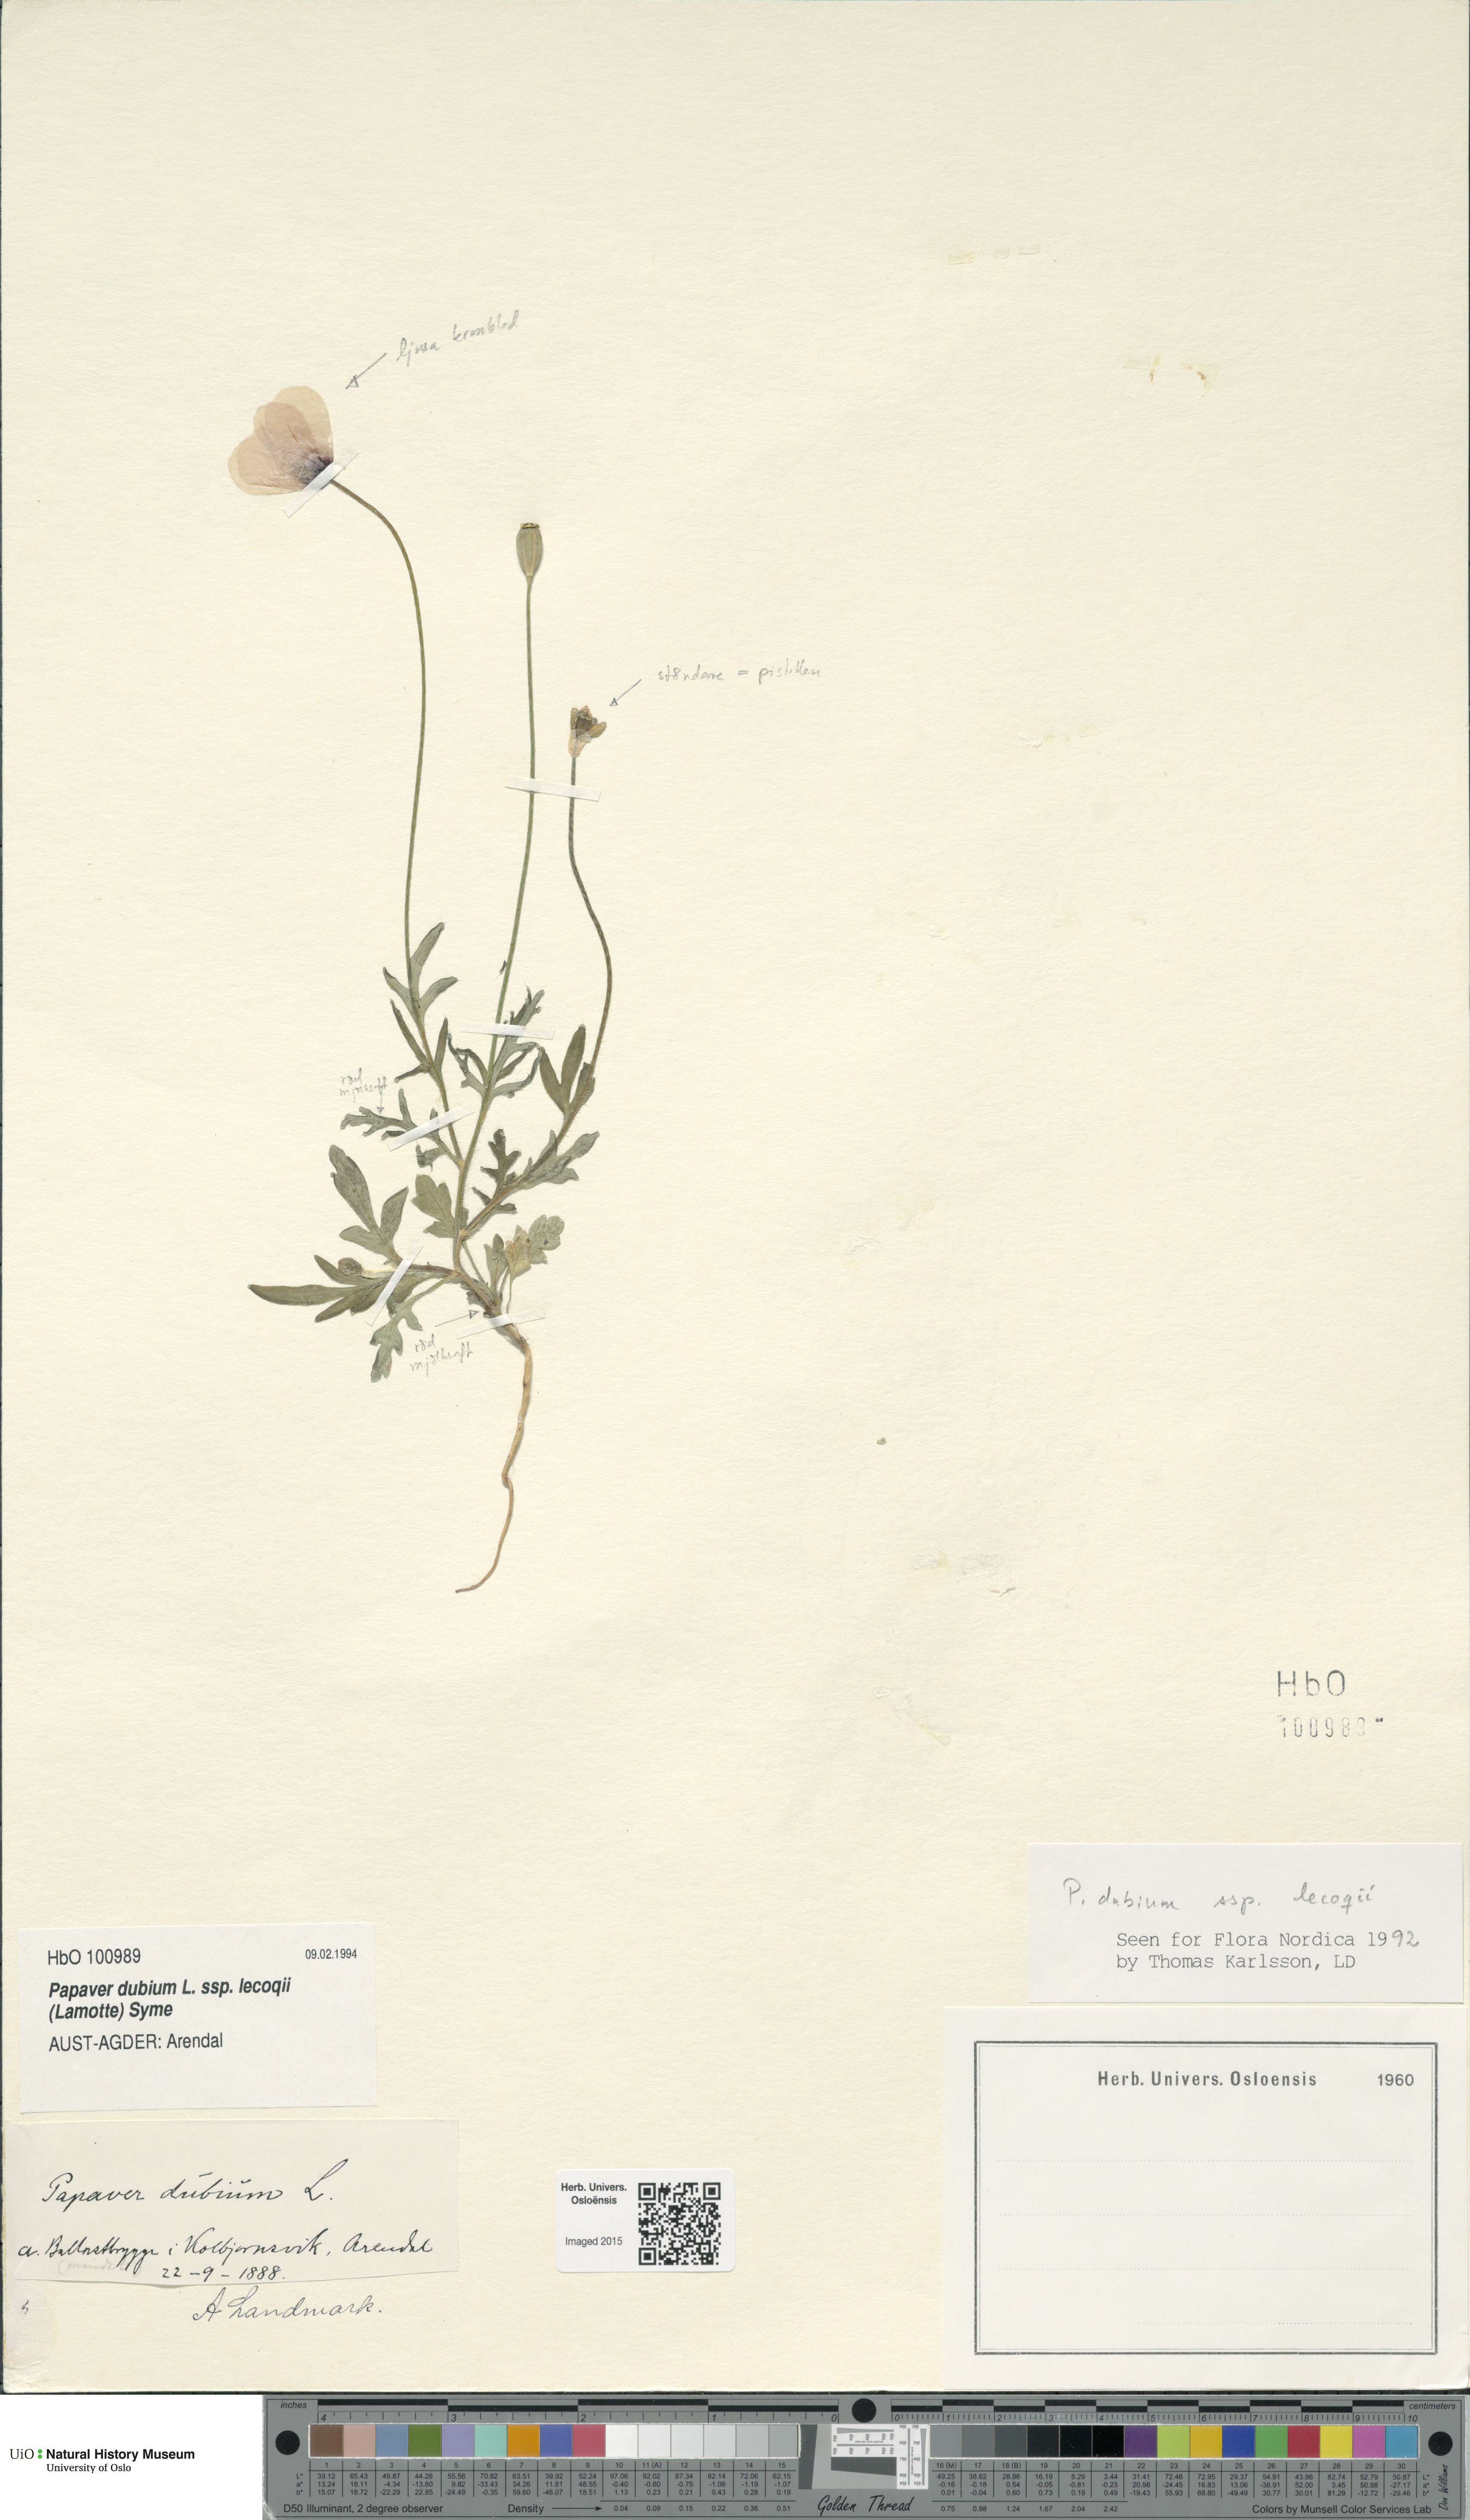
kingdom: Plantae
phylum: Tracheophyta
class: Magnoliopsida
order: Ranunculales
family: Papaveraceae
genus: Papaver
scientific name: Papaver lecoqii
